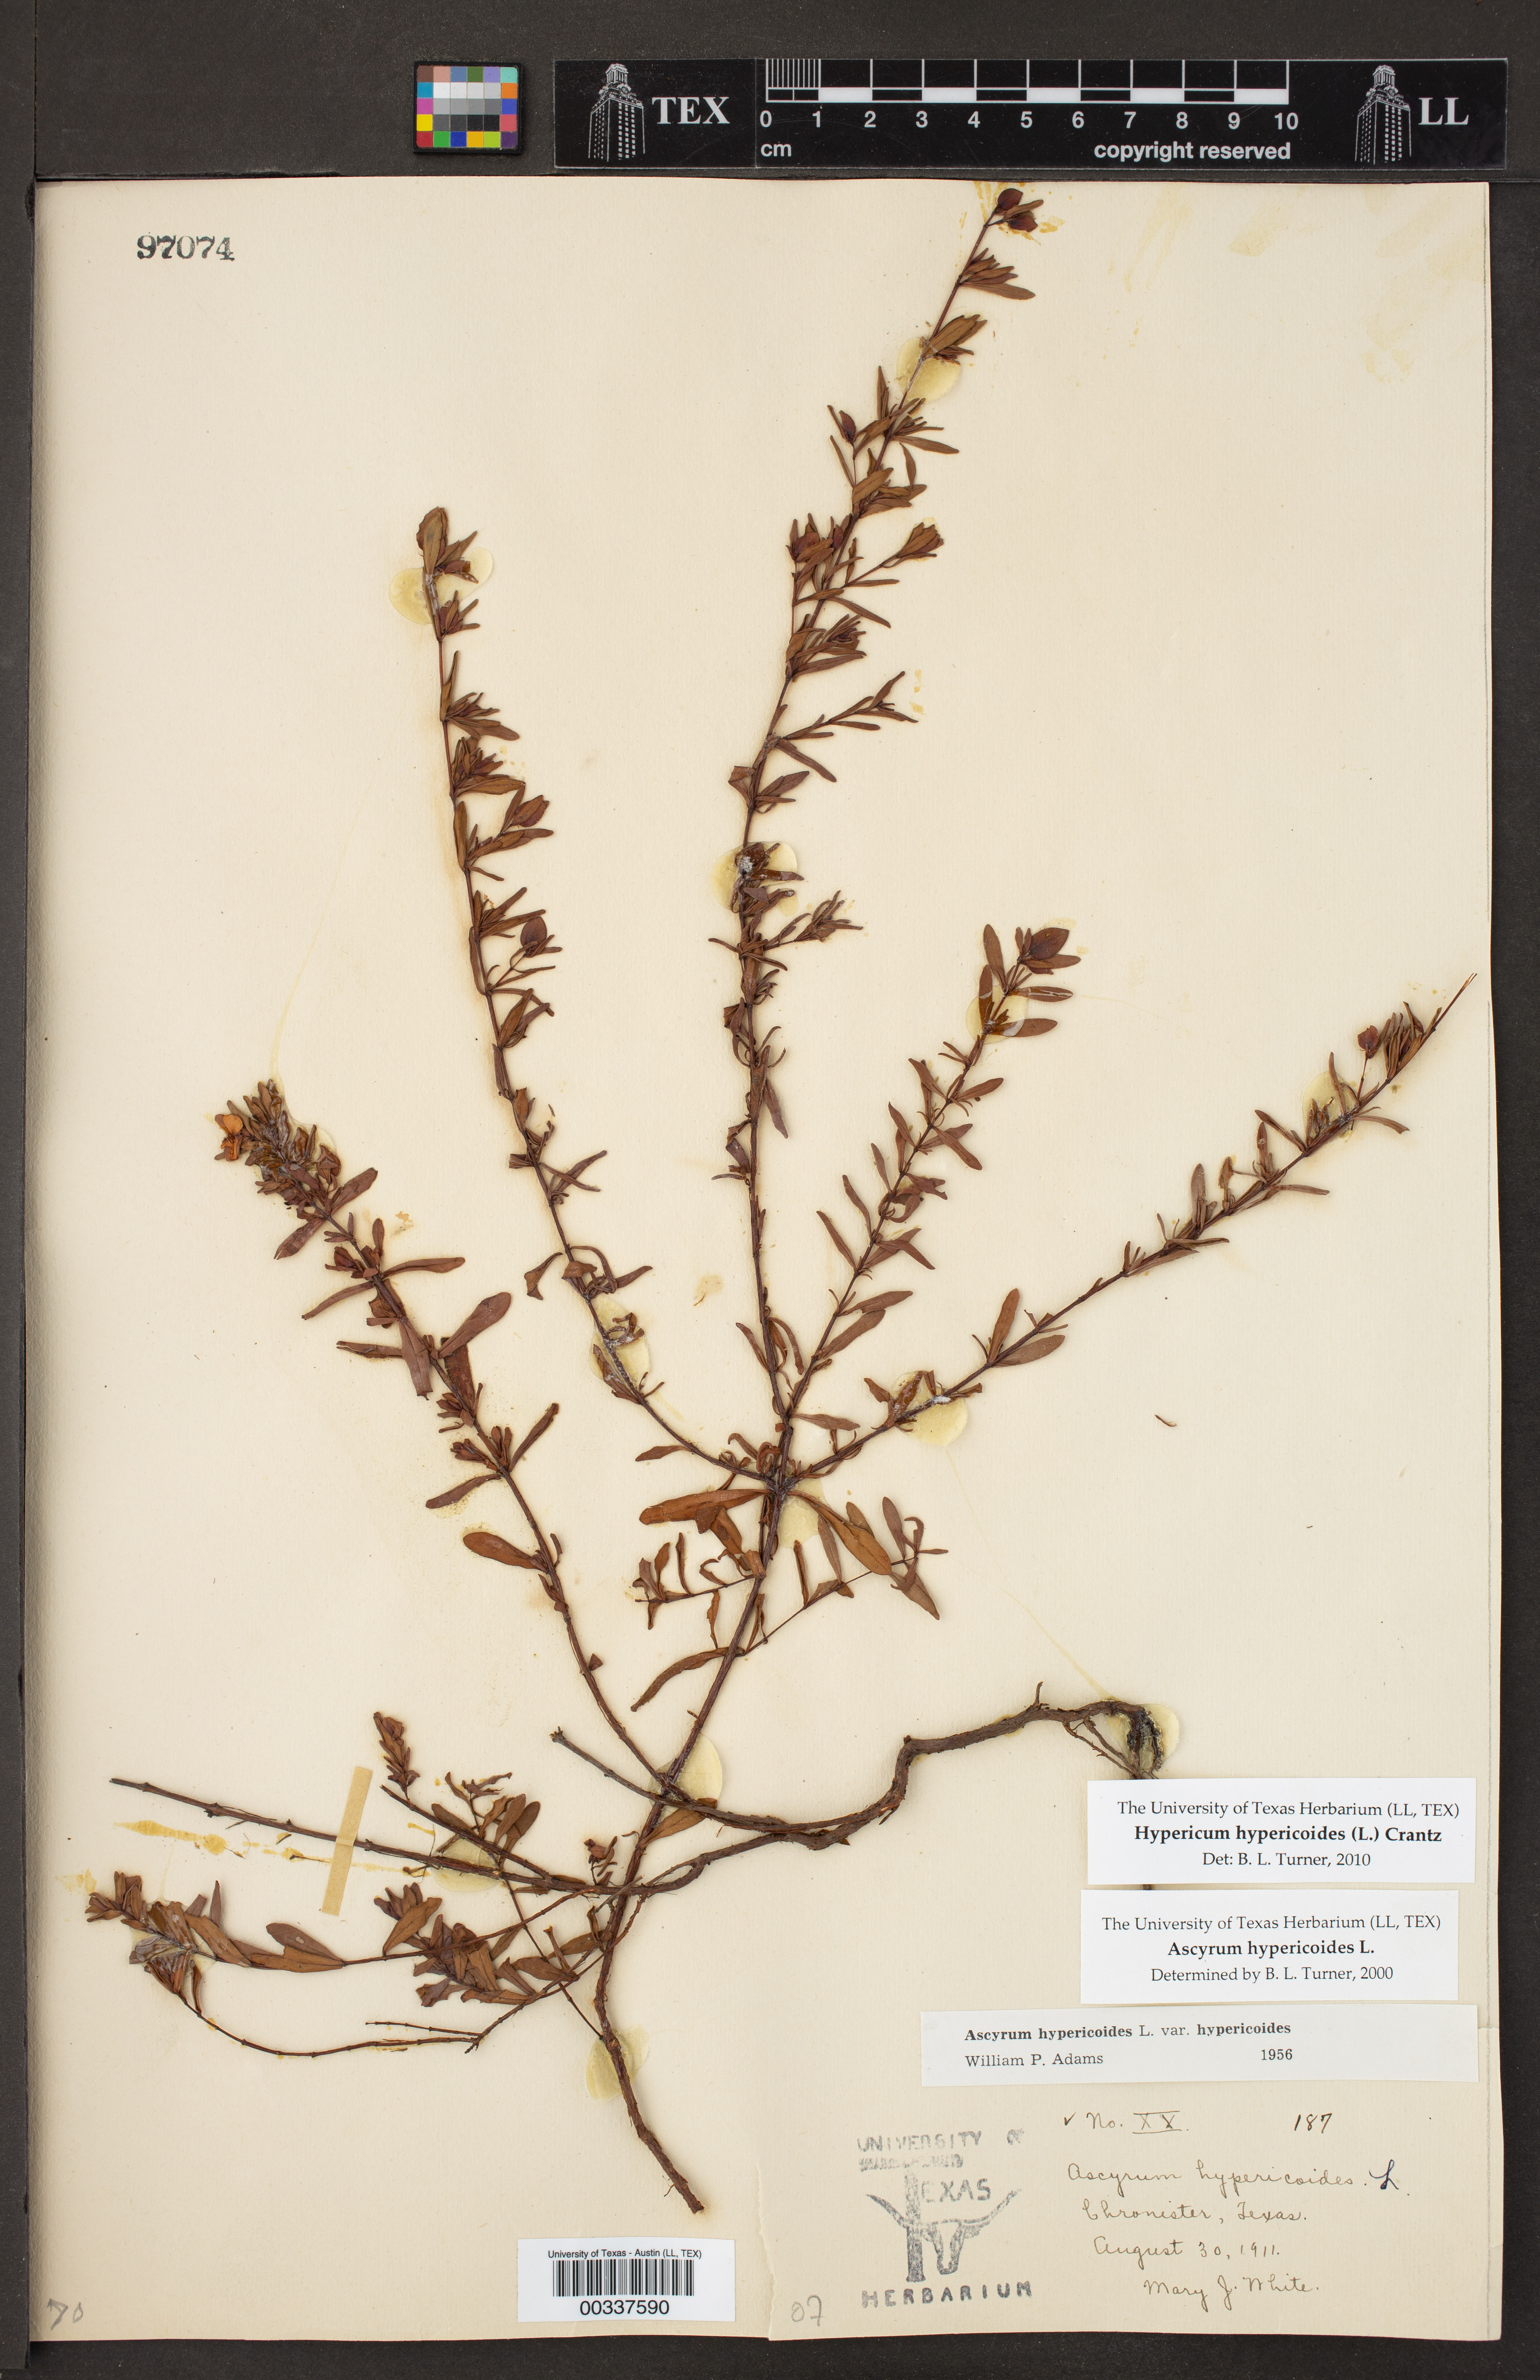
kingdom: Plantae
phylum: Tracheophyta
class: Magnoliopsida
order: Malpighiales
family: Hypericaceae
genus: Hypericum
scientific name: Hypericum hypericoides
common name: St. andrew's cross
